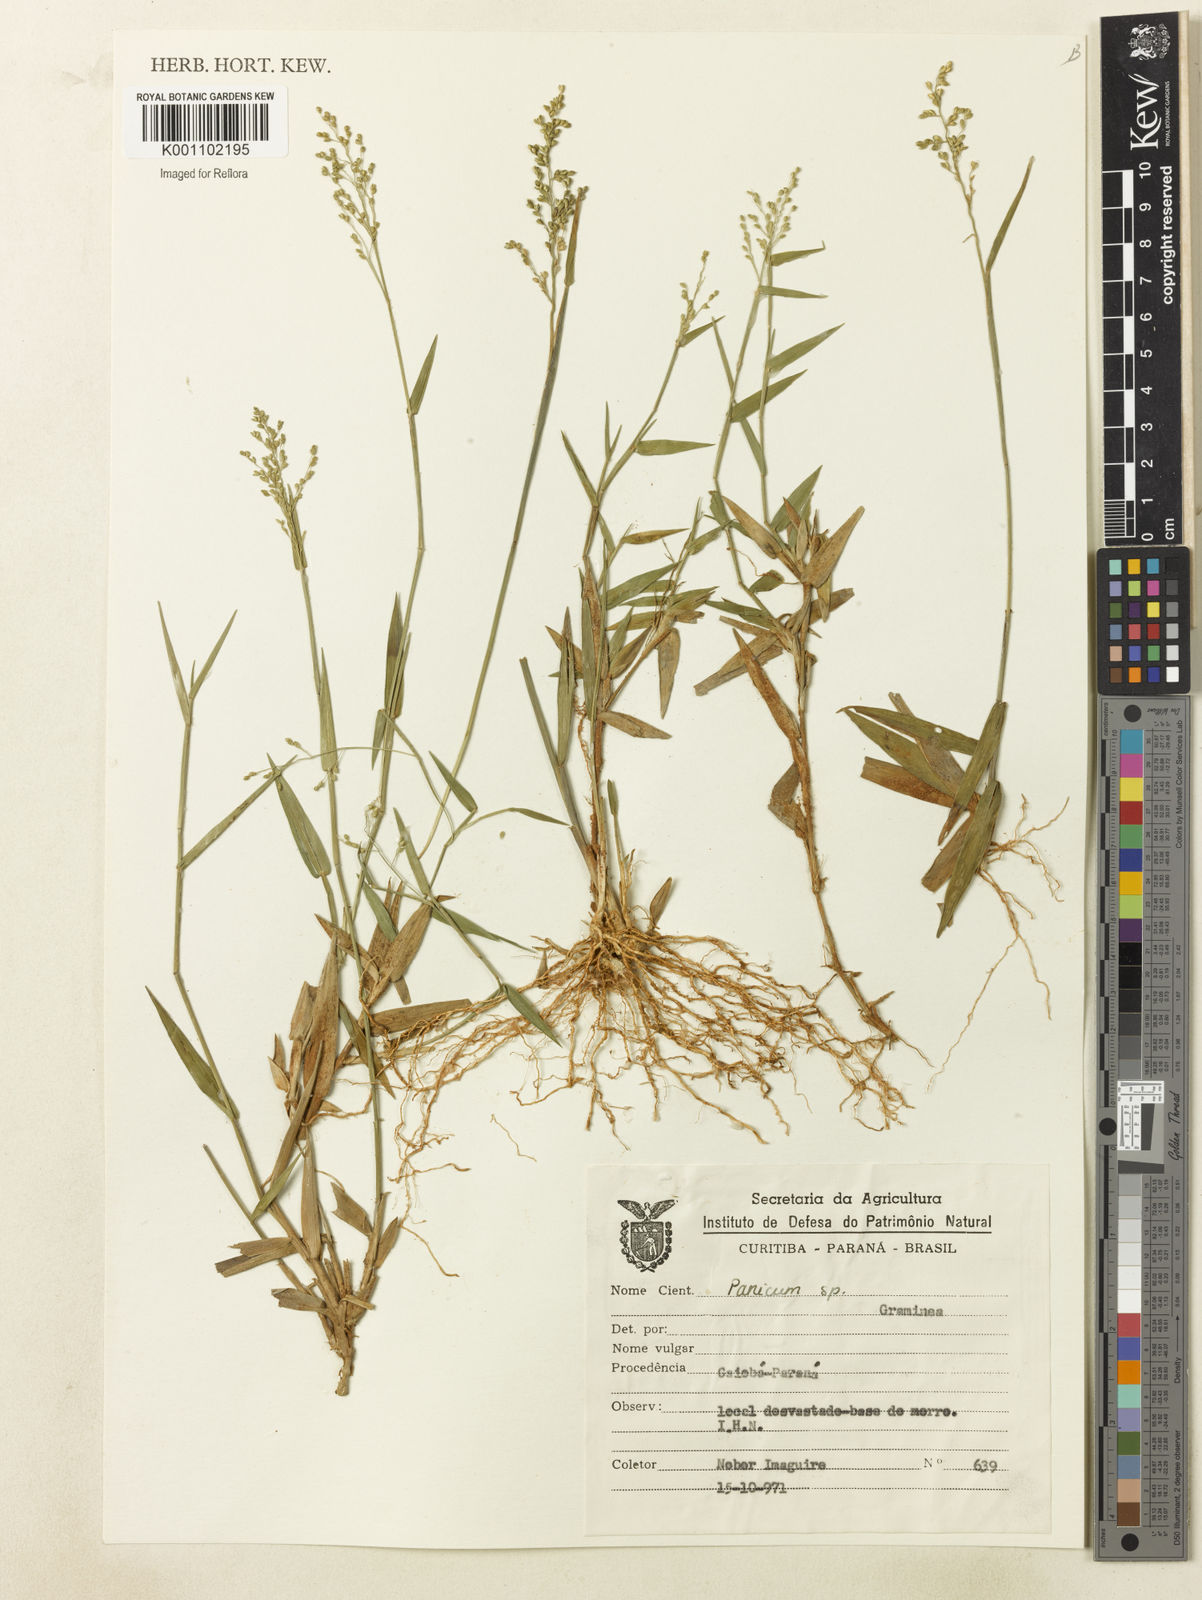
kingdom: Plantae
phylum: Tracheophyta
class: Liliopsida
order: Poales
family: Poaceae
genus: Dichanthelium
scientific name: Dichanthelium sabulorum
